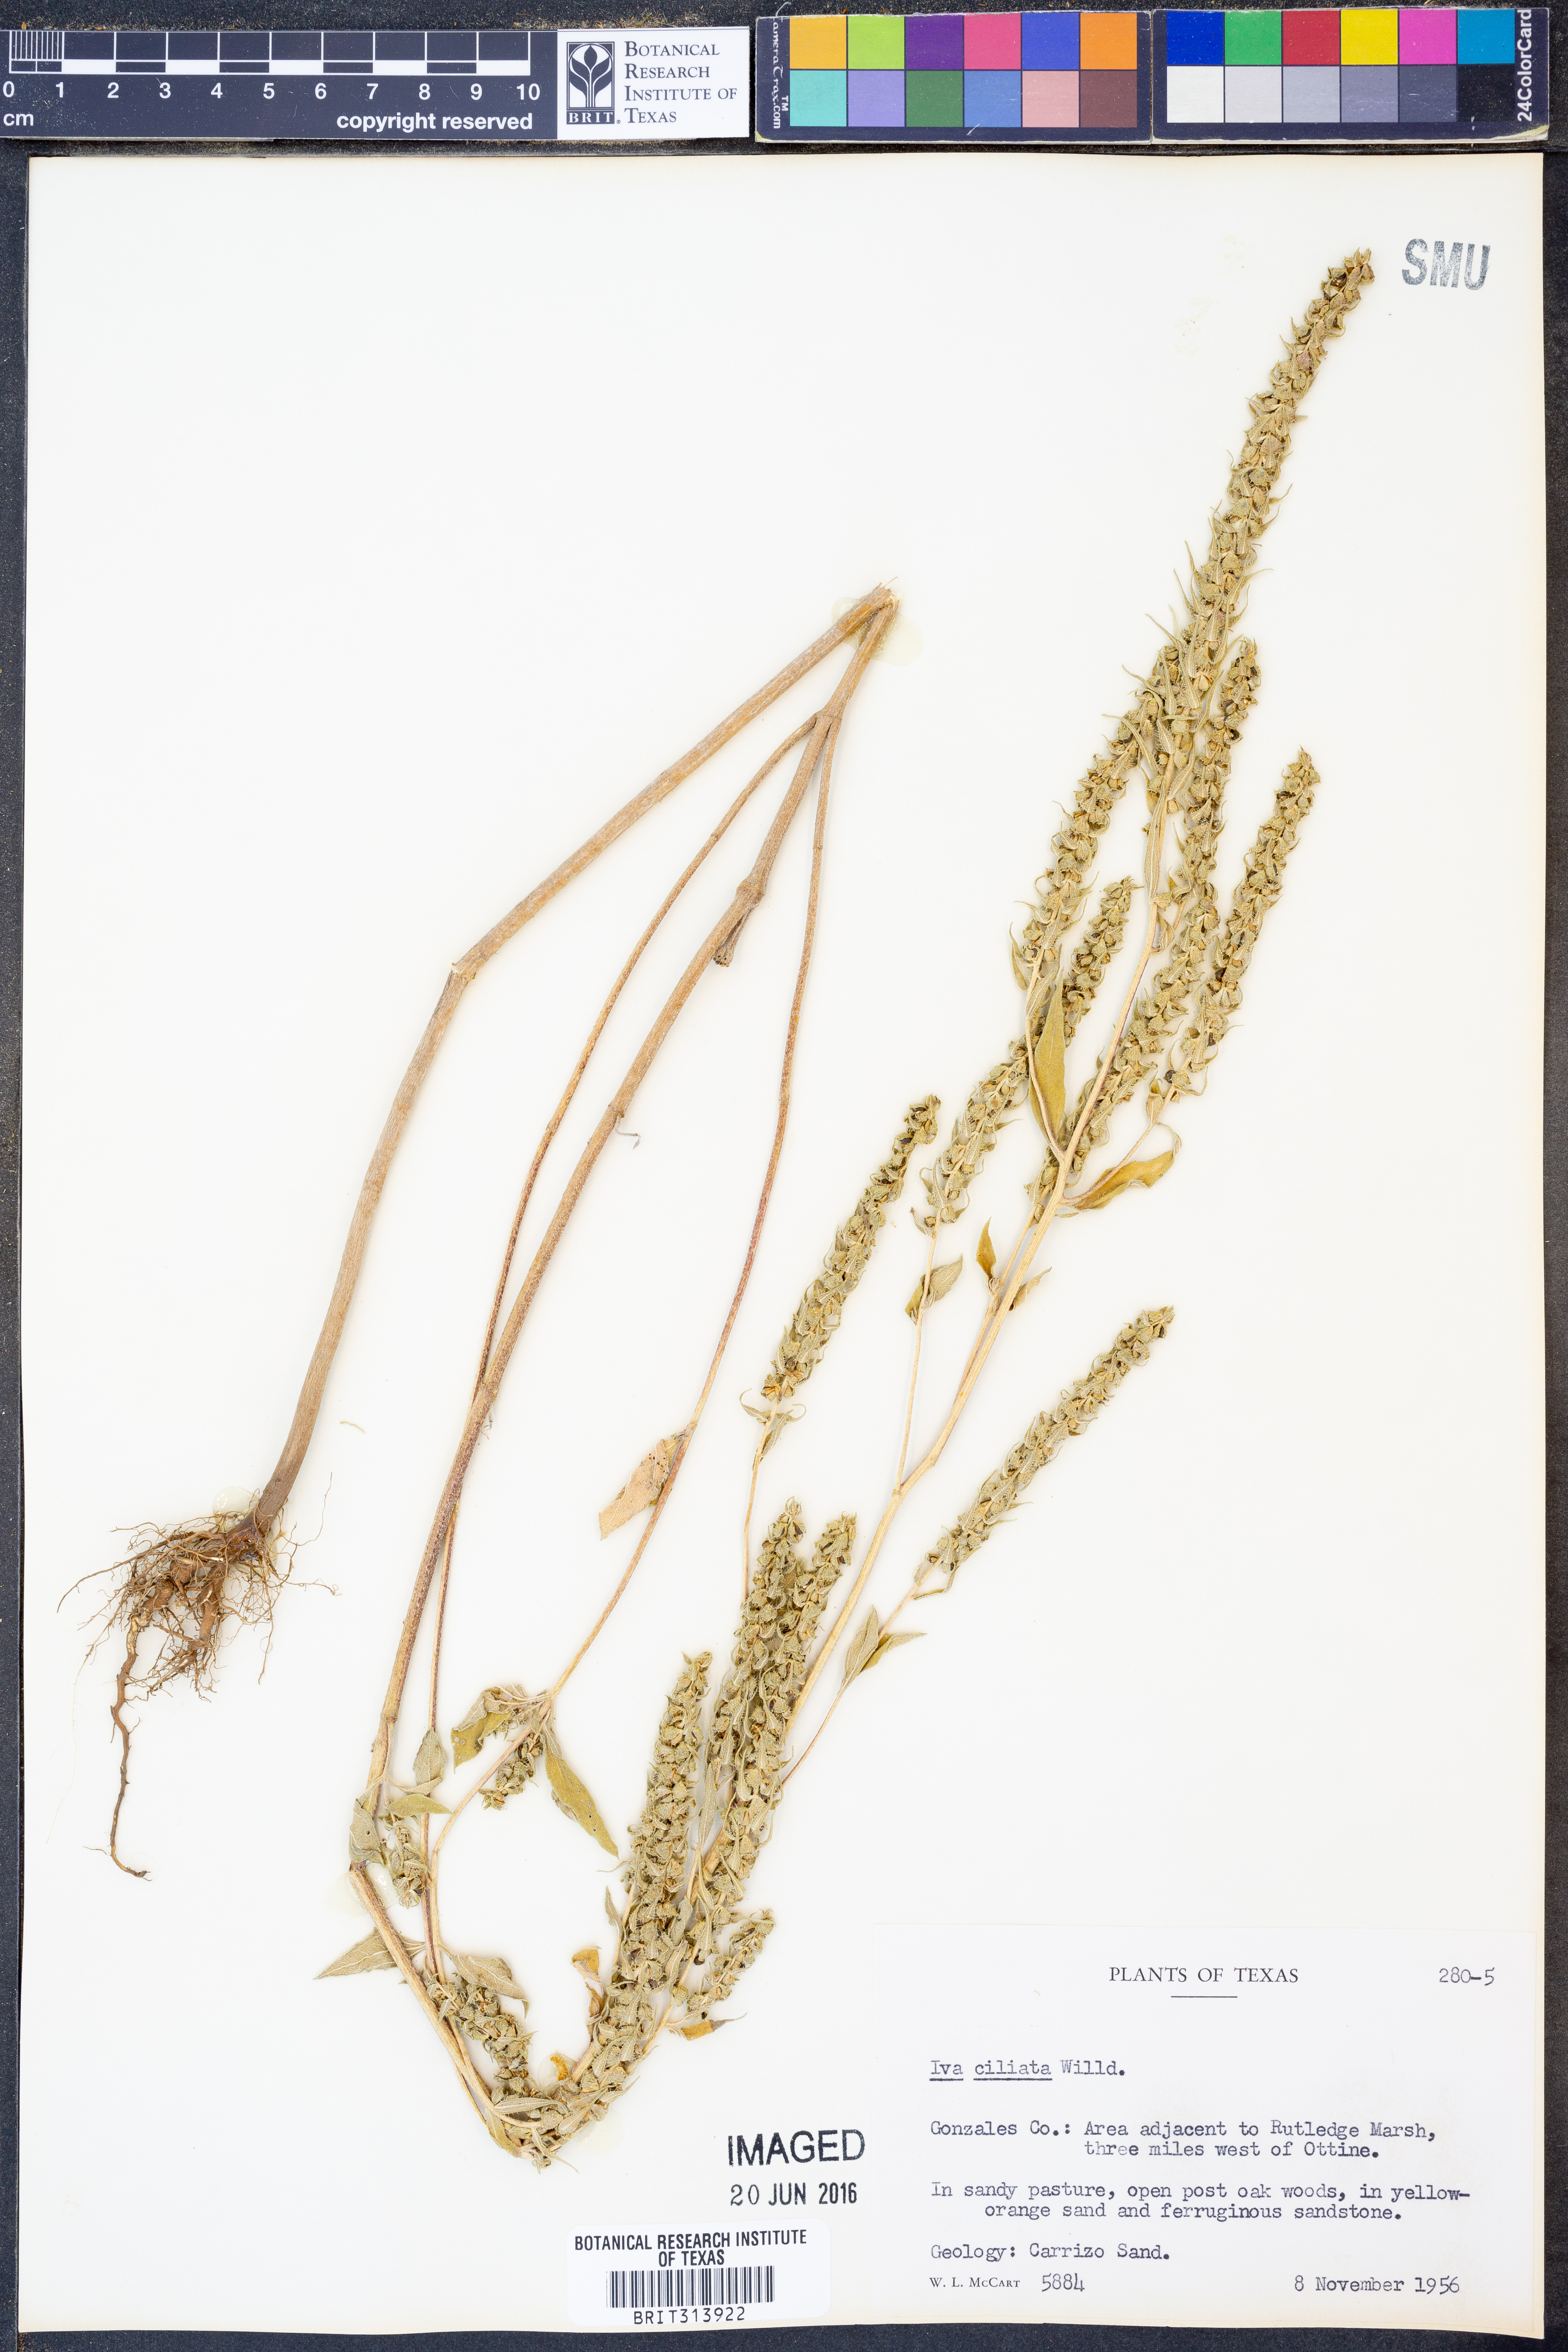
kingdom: Plantae
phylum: Tracheophyta
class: Magnoliopsida
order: Asterales
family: Asteraceae
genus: Iva
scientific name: Iva annua
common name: Marsh-elder
